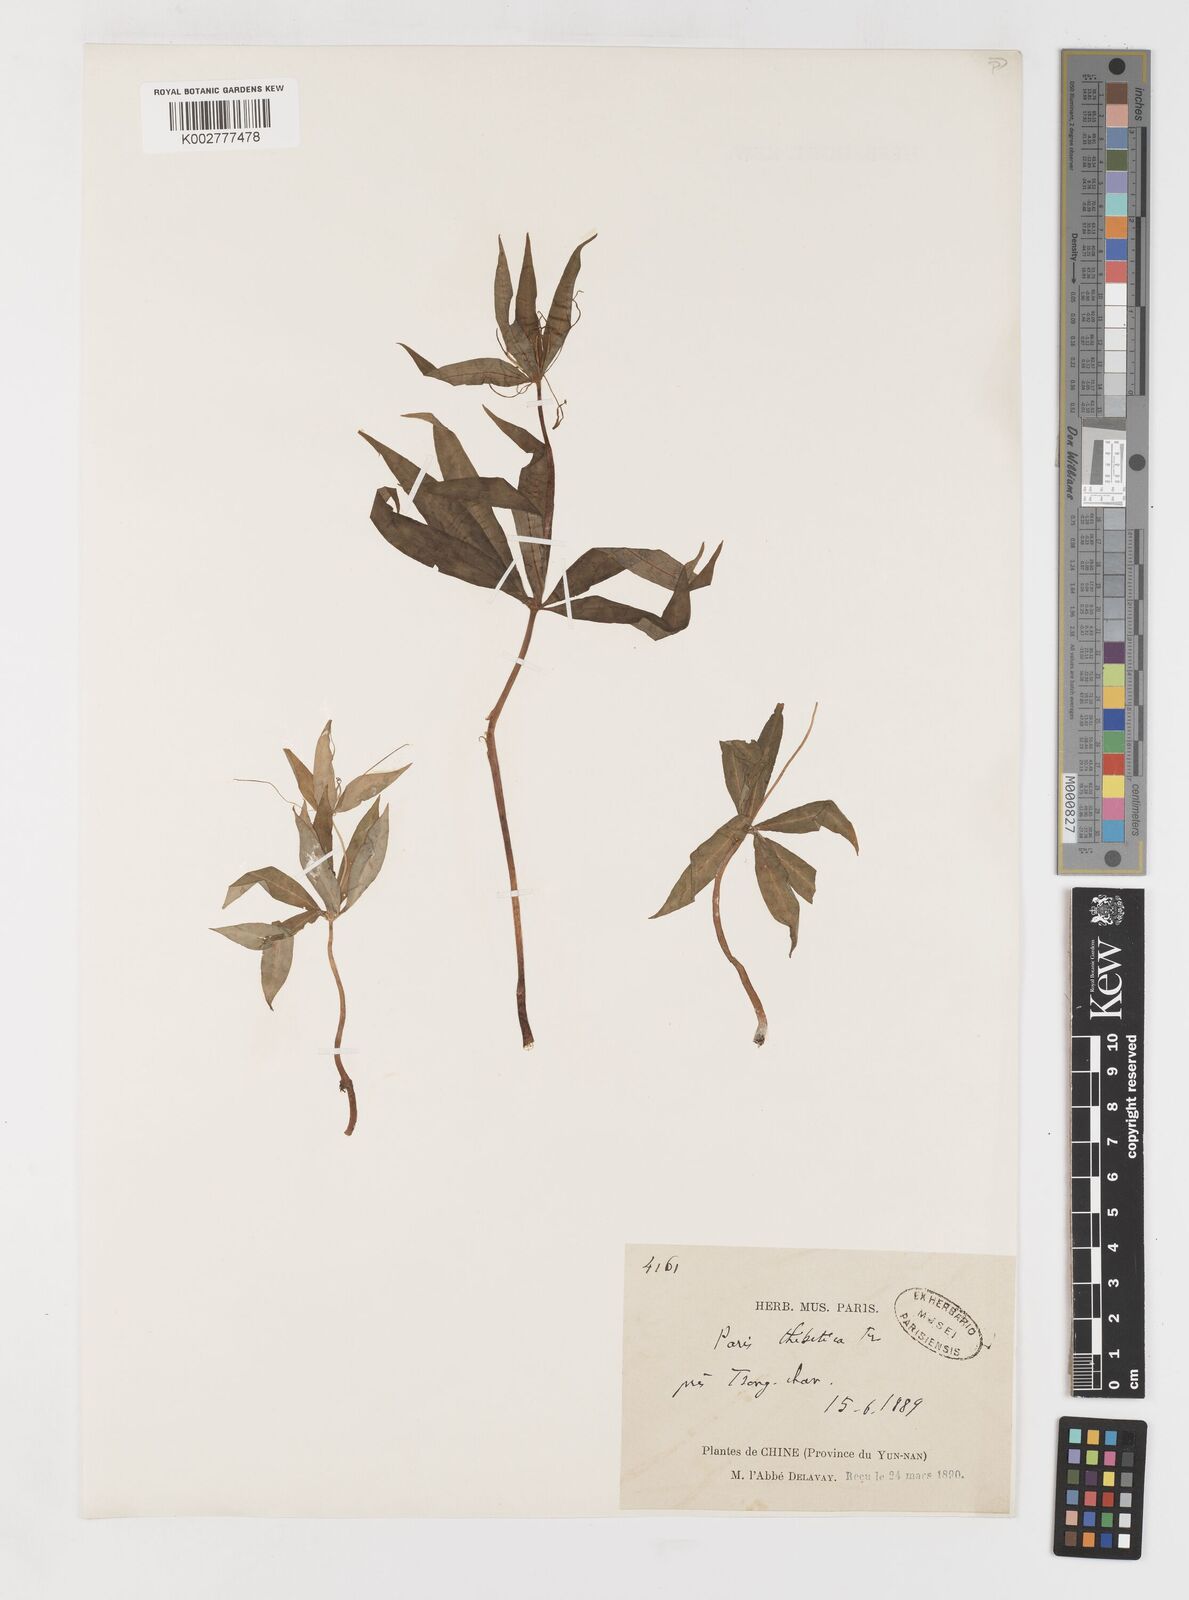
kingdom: Plantae
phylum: Tracheophyta
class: Liliopsida
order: Liliales
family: Melanthiaceae
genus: Paris
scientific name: Paris thibetica
